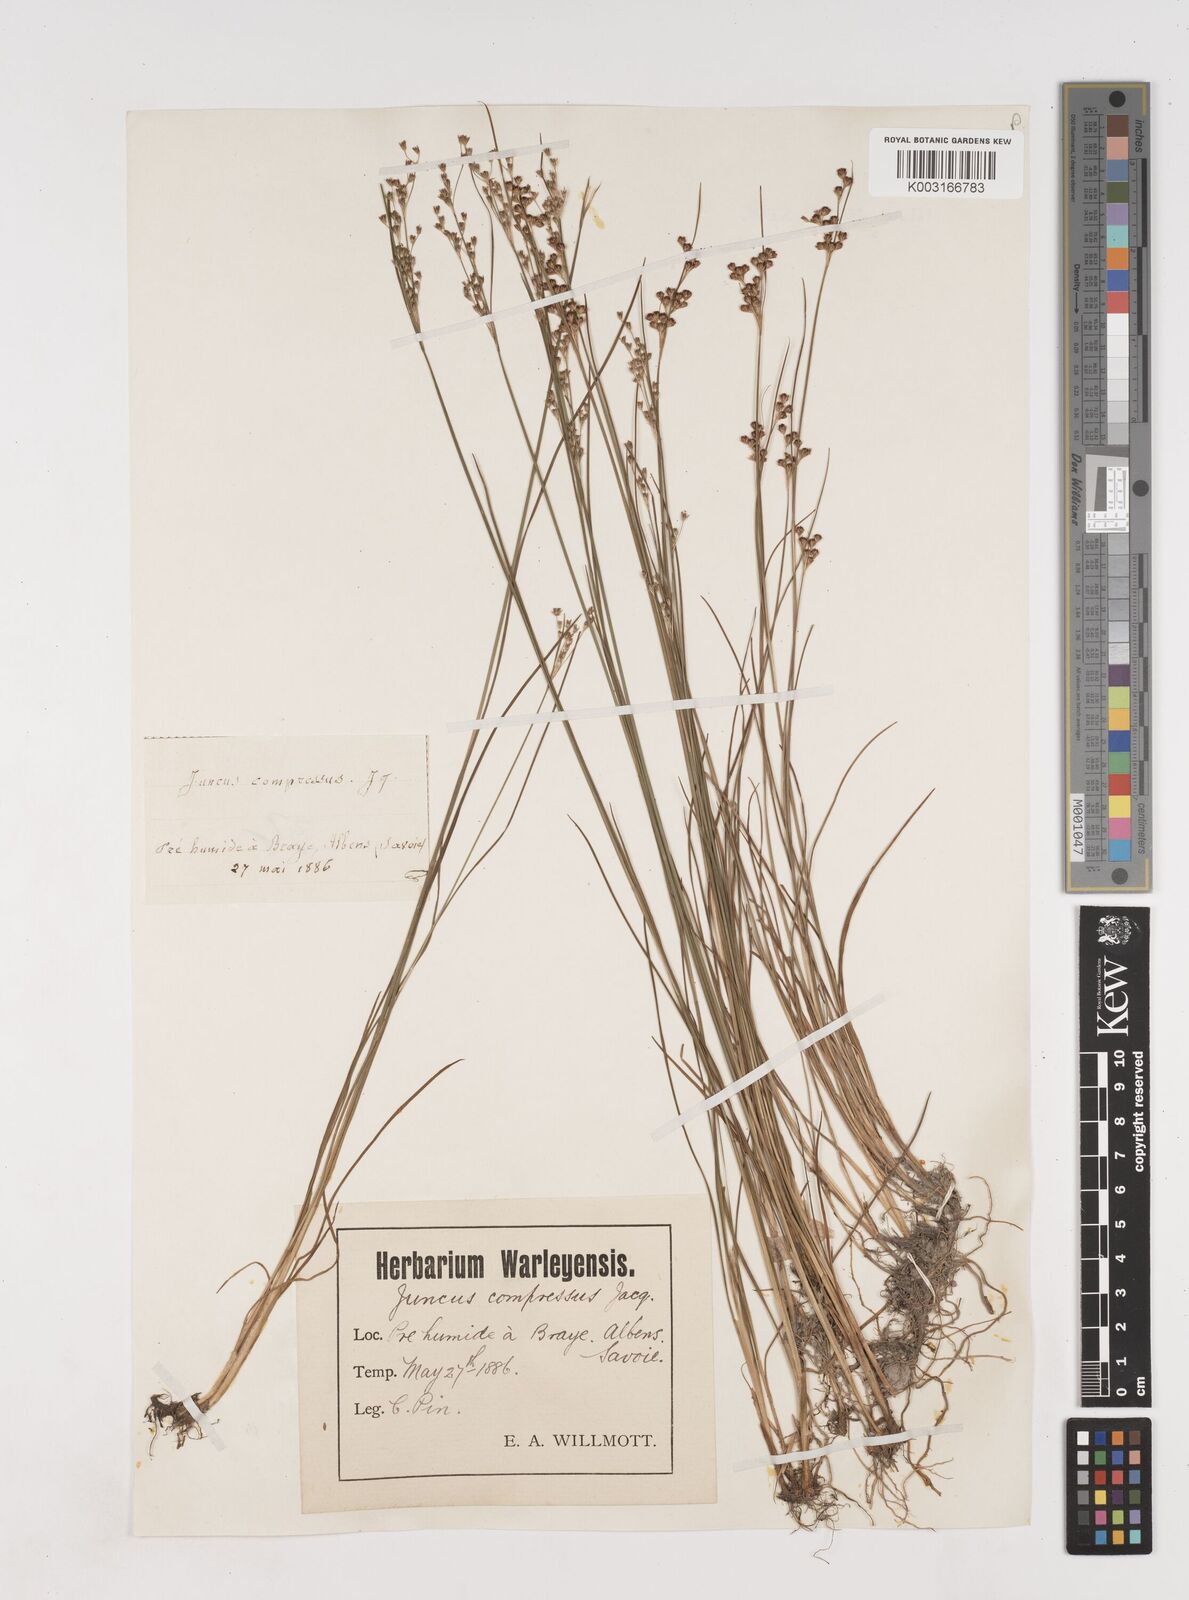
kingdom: Plantae
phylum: Tracheophyta
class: Liliopsida
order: Poales
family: Juncaceae
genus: Juncus
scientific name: Juncus compressus
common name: Round-fruited rush
